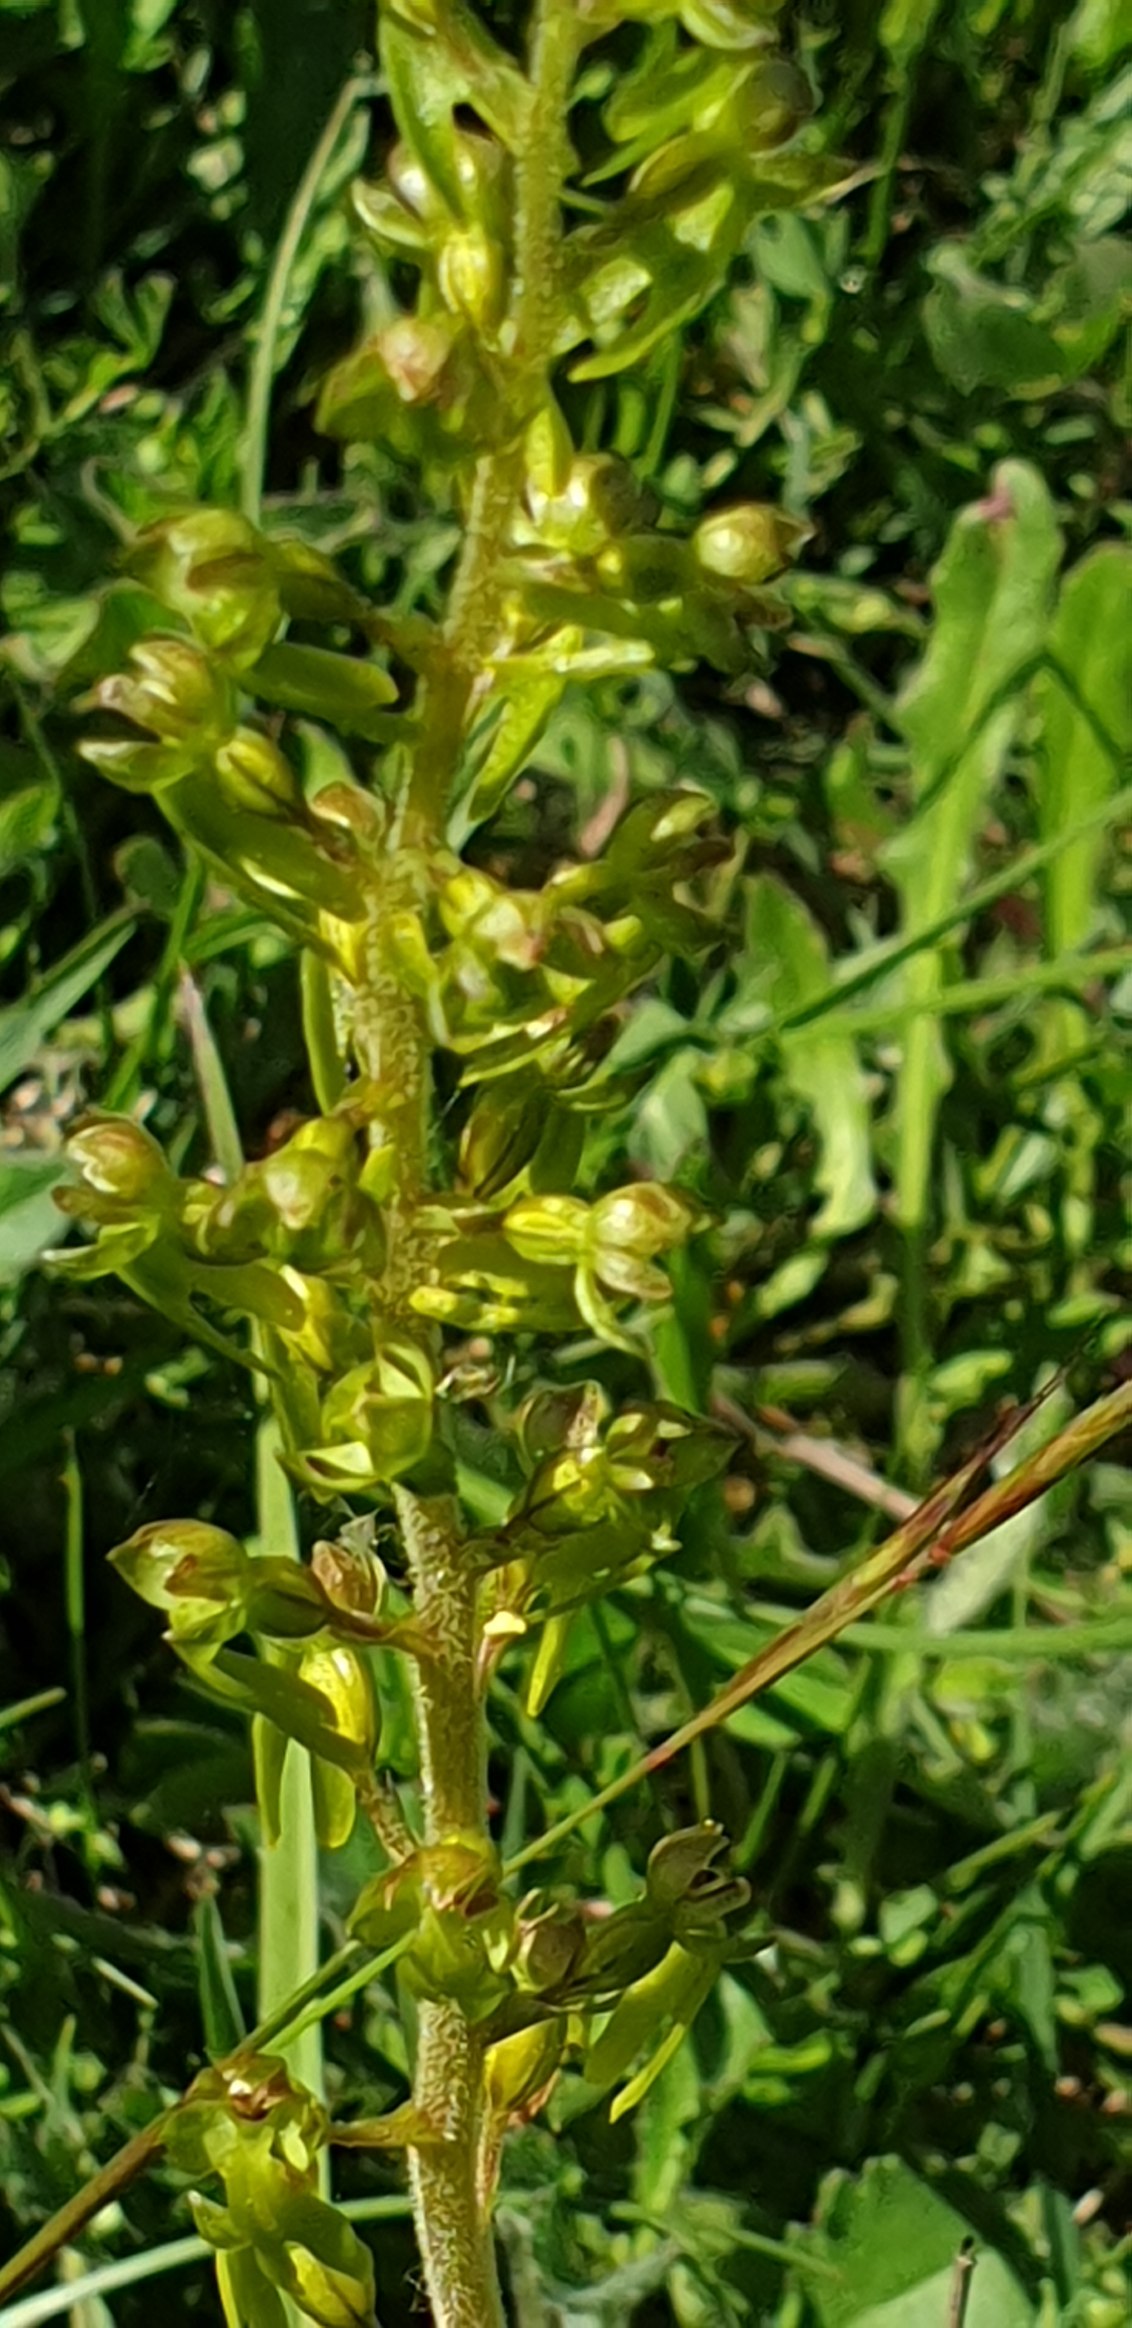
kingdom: Plantae
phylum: Tracheophyta
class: Liliopsida
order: Asparagales
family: Orchidaceae
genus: Neottia
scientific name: Neottia ovata
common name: Ægbladet fliglæbe
